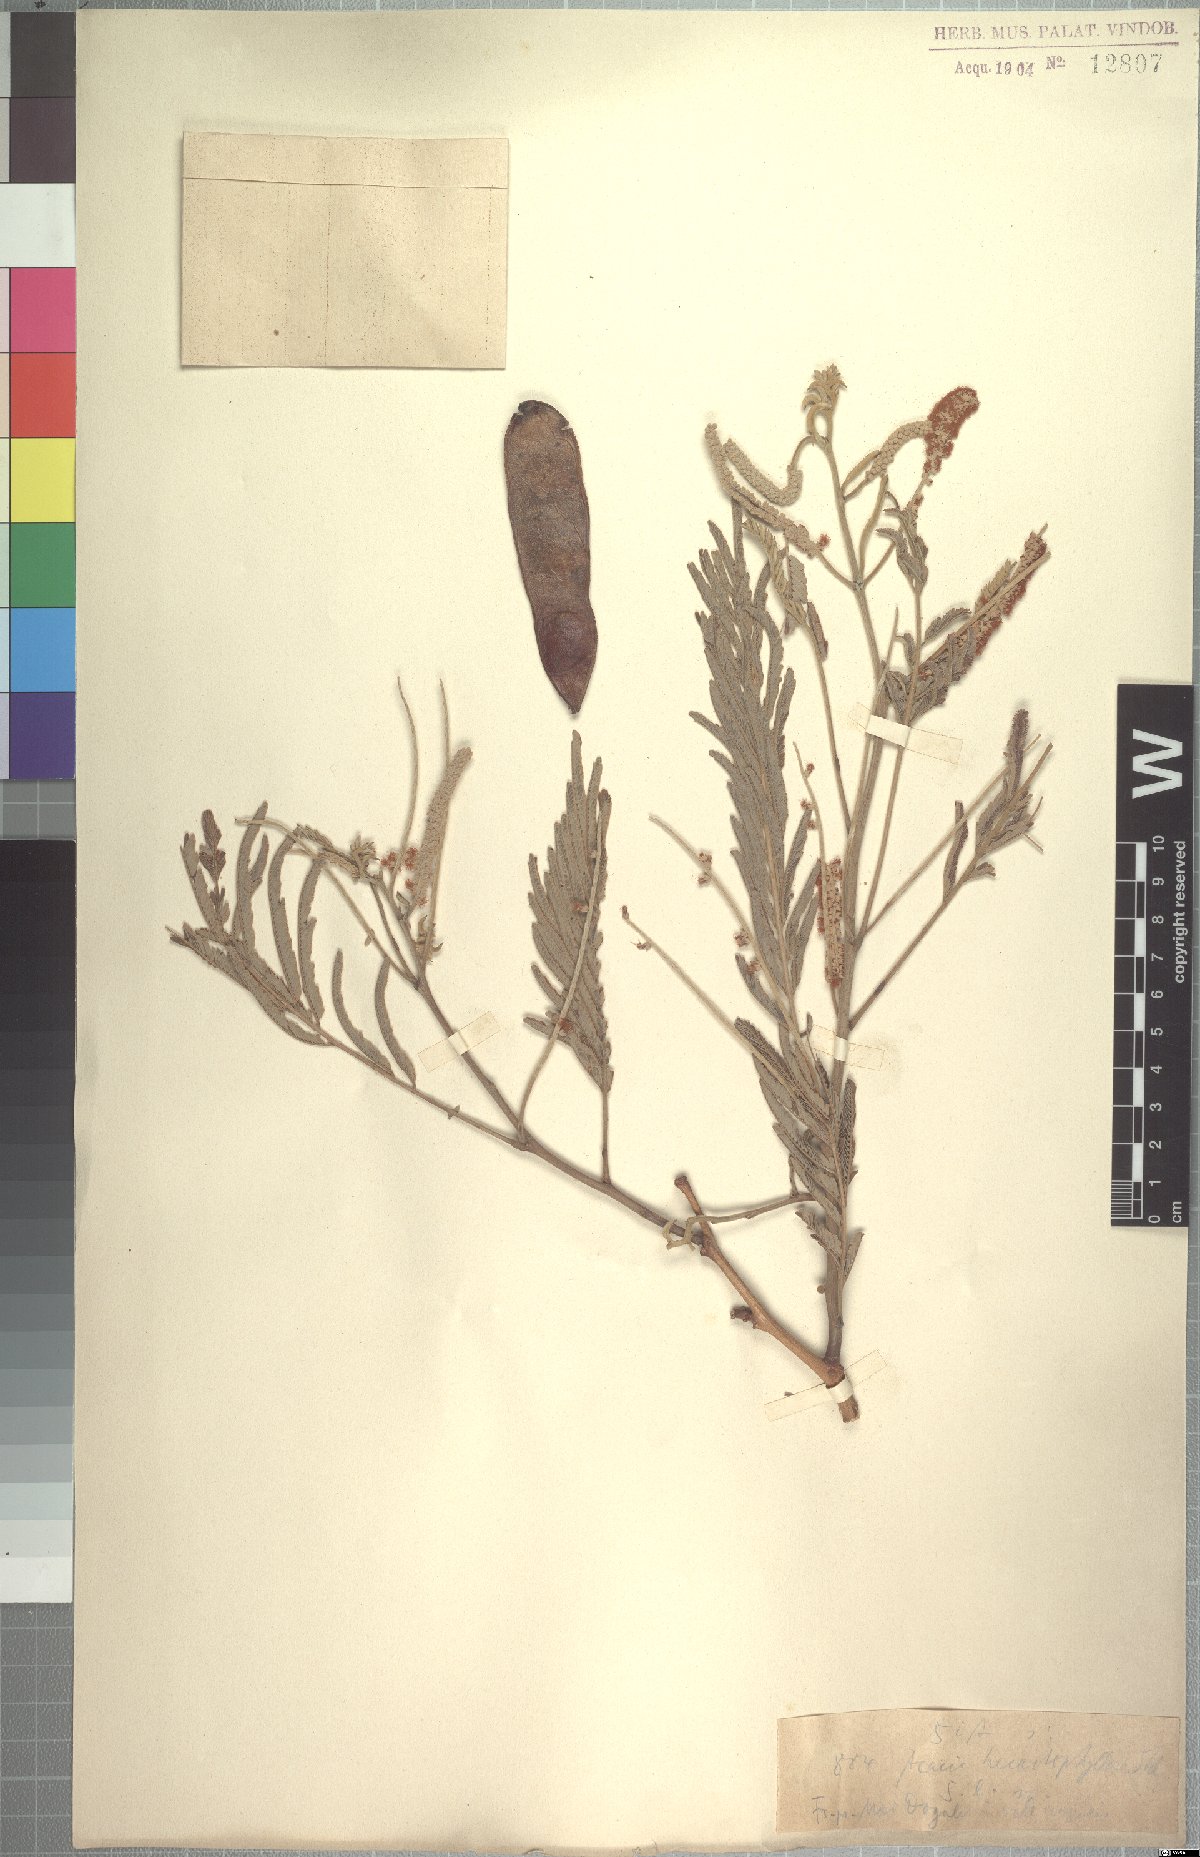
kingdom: Plantae
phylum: Tracheophyta
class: Magnoliopsida
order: Fabales
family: Fabaceae
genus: Senegalia
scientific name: Senegalia hecatophylla
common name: Long pod
